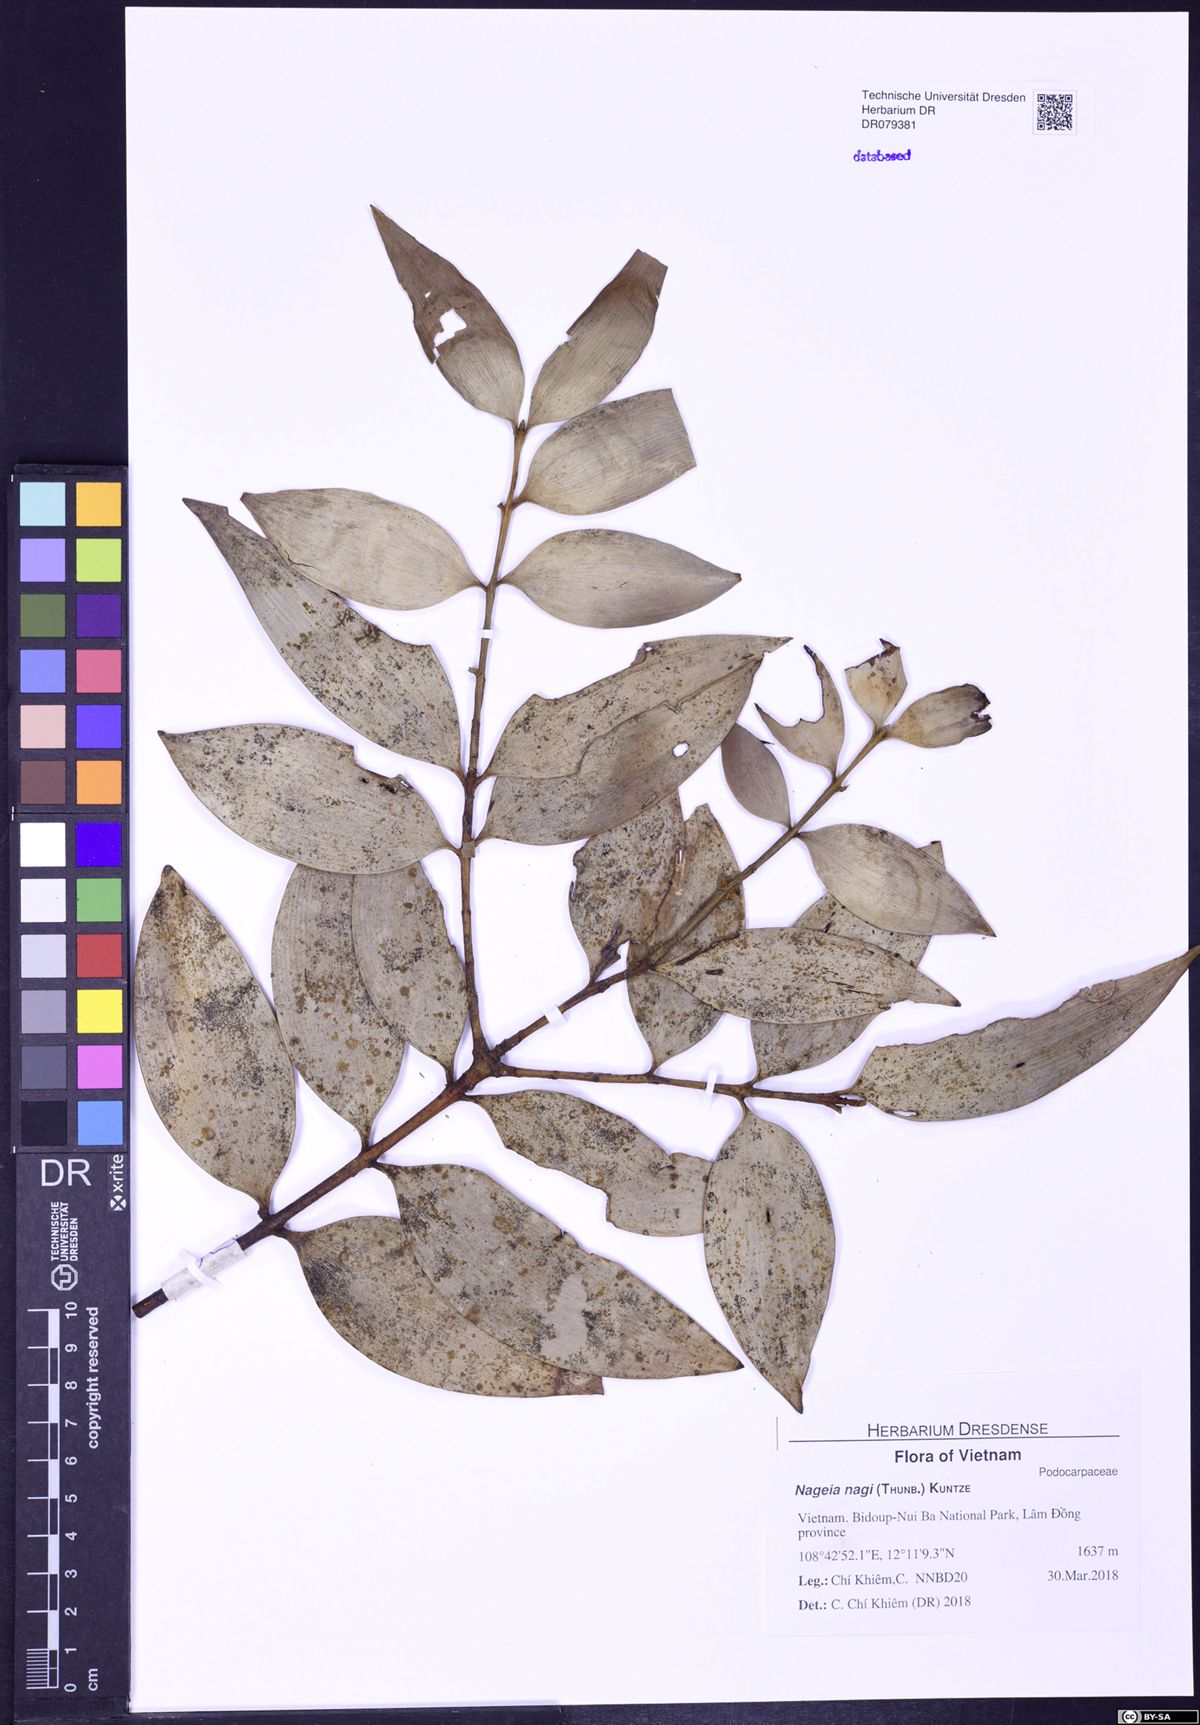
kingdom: Plantae
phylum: Tracheophyta
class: Pinopsida
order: Pinales
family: Podocarpaceae
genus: Nageia
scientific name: Nageia nagi
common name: Kaphal
